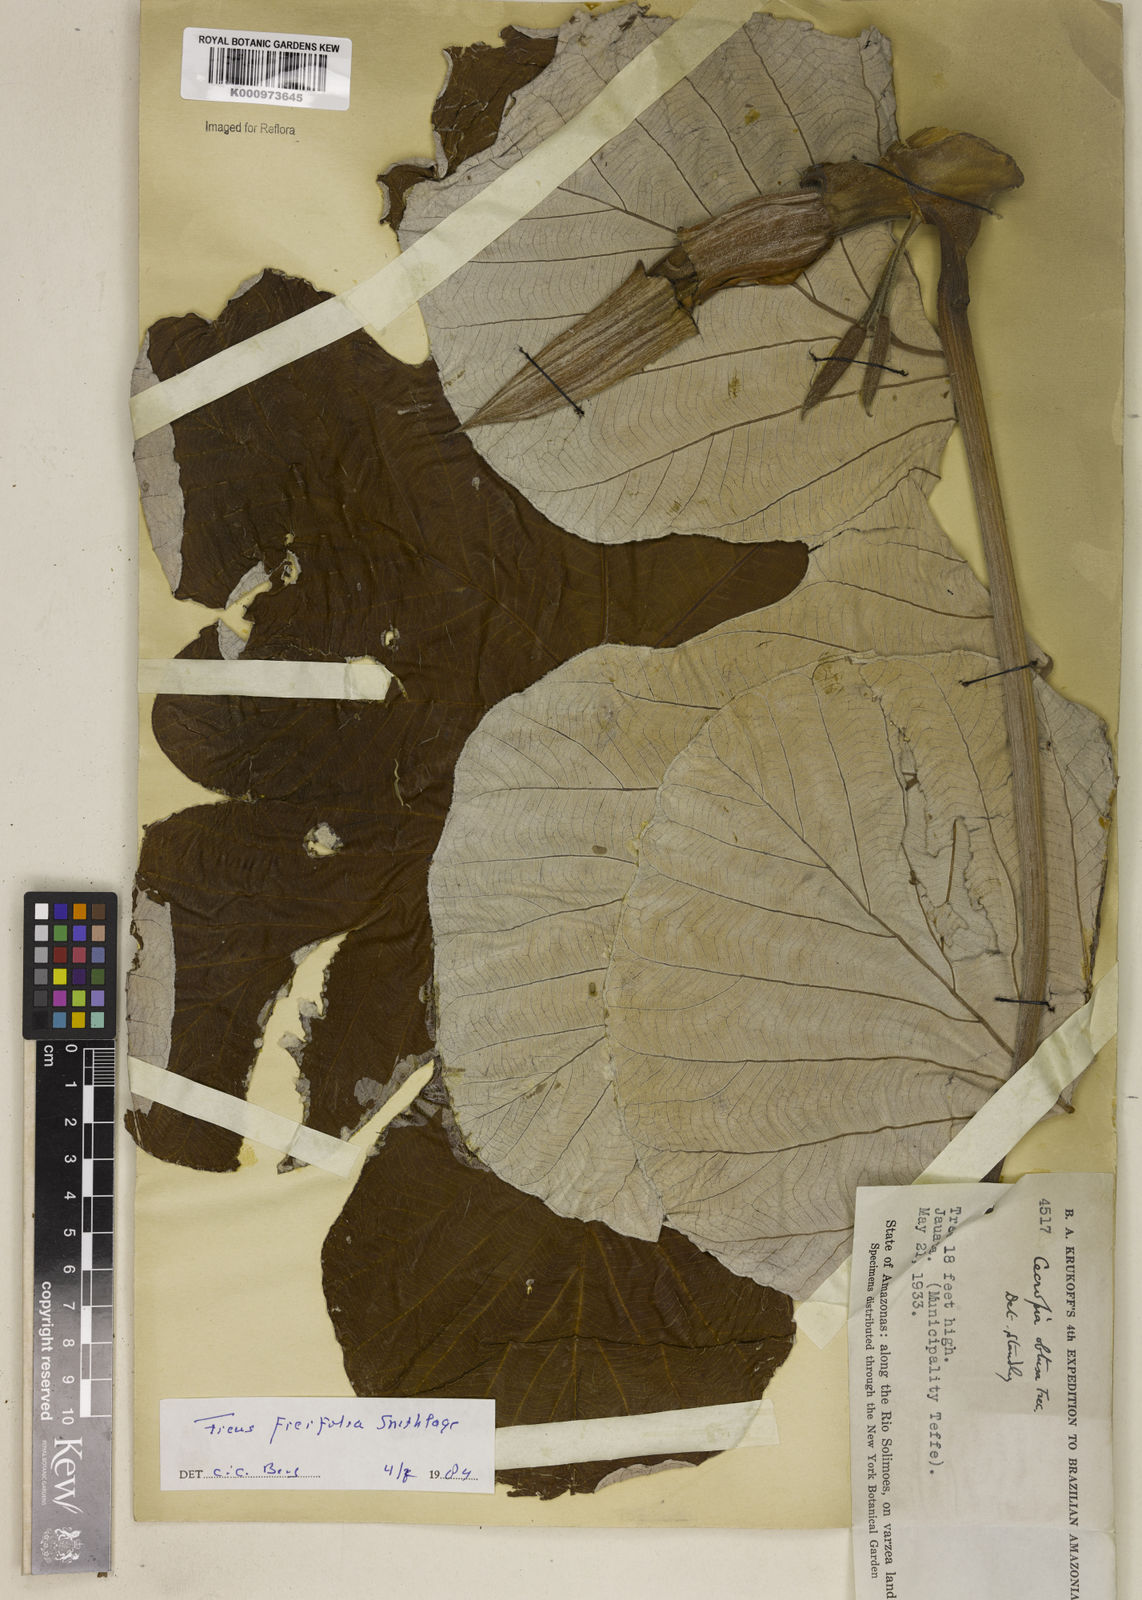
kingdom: Plantae
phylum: Tracheophyta
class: Magnoliopsida
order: Rosales
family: Urticaceae
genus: Cecropia
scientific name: Cecropia ficifolia
